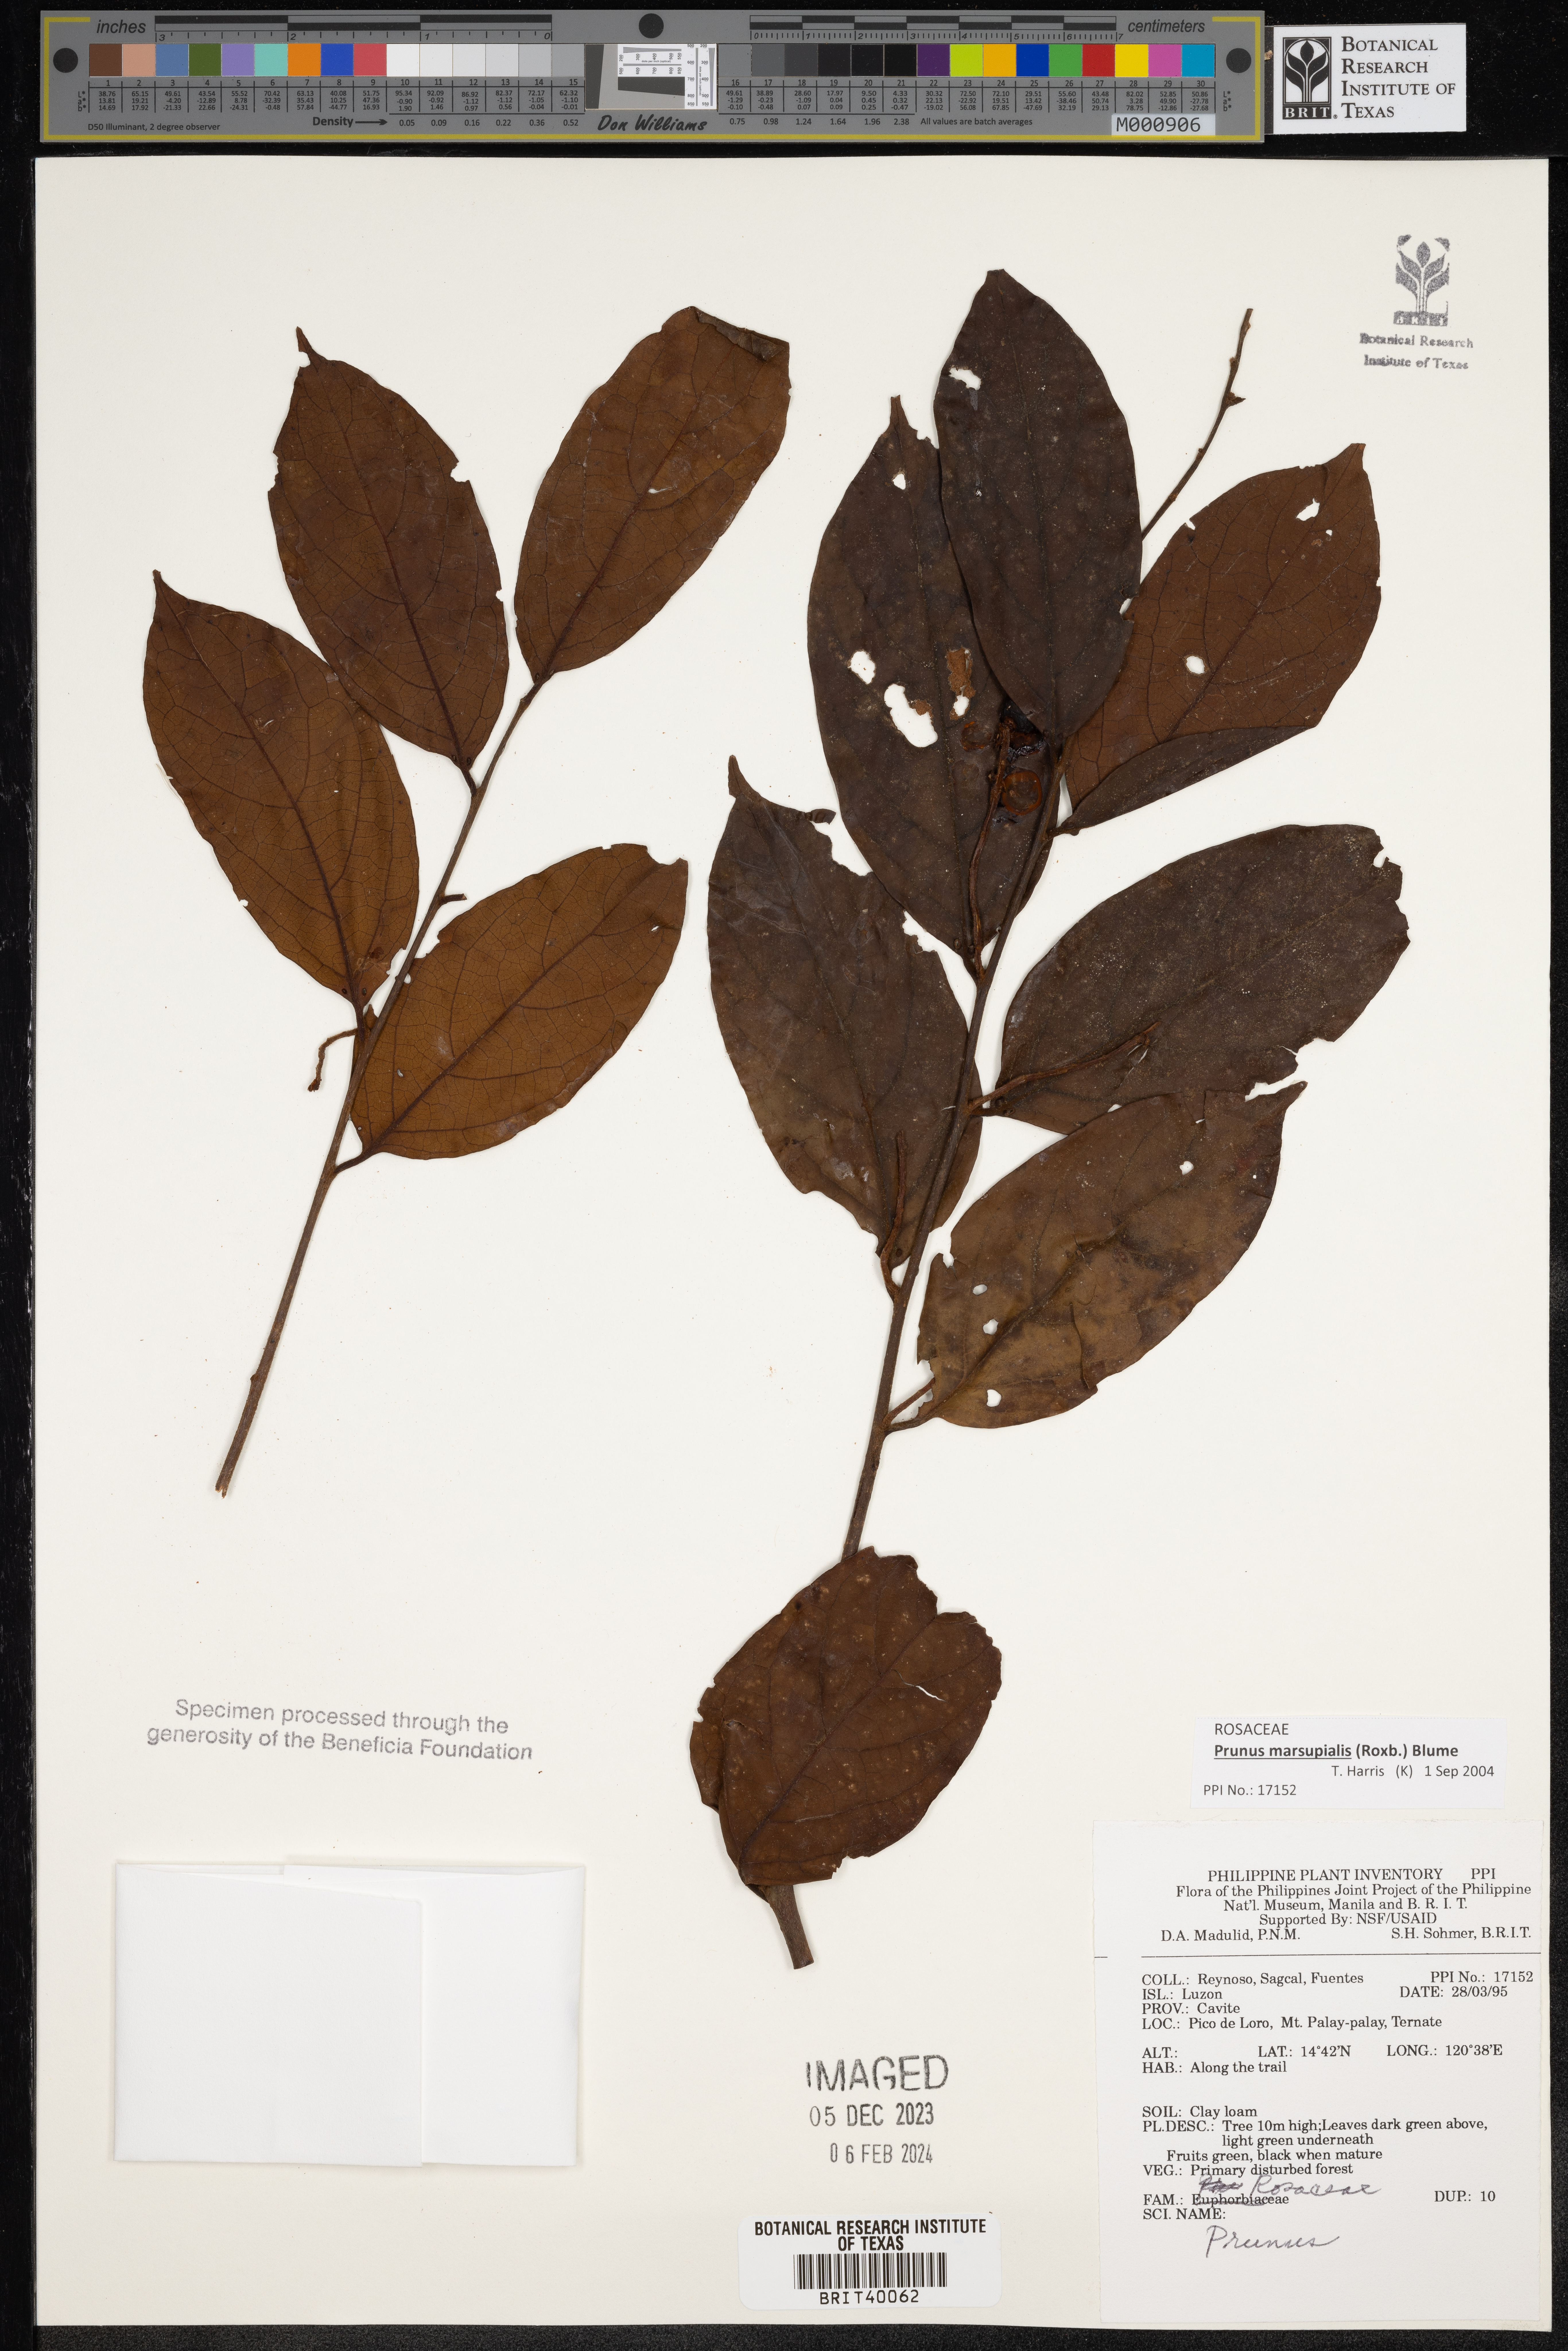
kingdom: Plantae
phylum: Tracheophyta
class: Magnoliopsida
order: Rosales
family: Rosaceae
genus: Prunus
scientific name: Prunus
